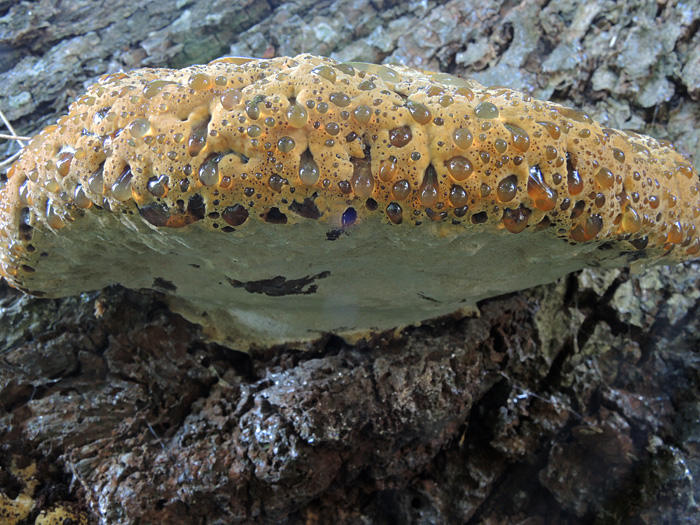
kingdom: Fungi
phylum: Basidiomycota
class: Agaricomycetes
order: Hymenochaetales
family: Hymenochaetaceae
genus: Pseudoinonotus
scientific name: Pseudoinonotus dryadeus
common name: ege-spejlporesvamp
